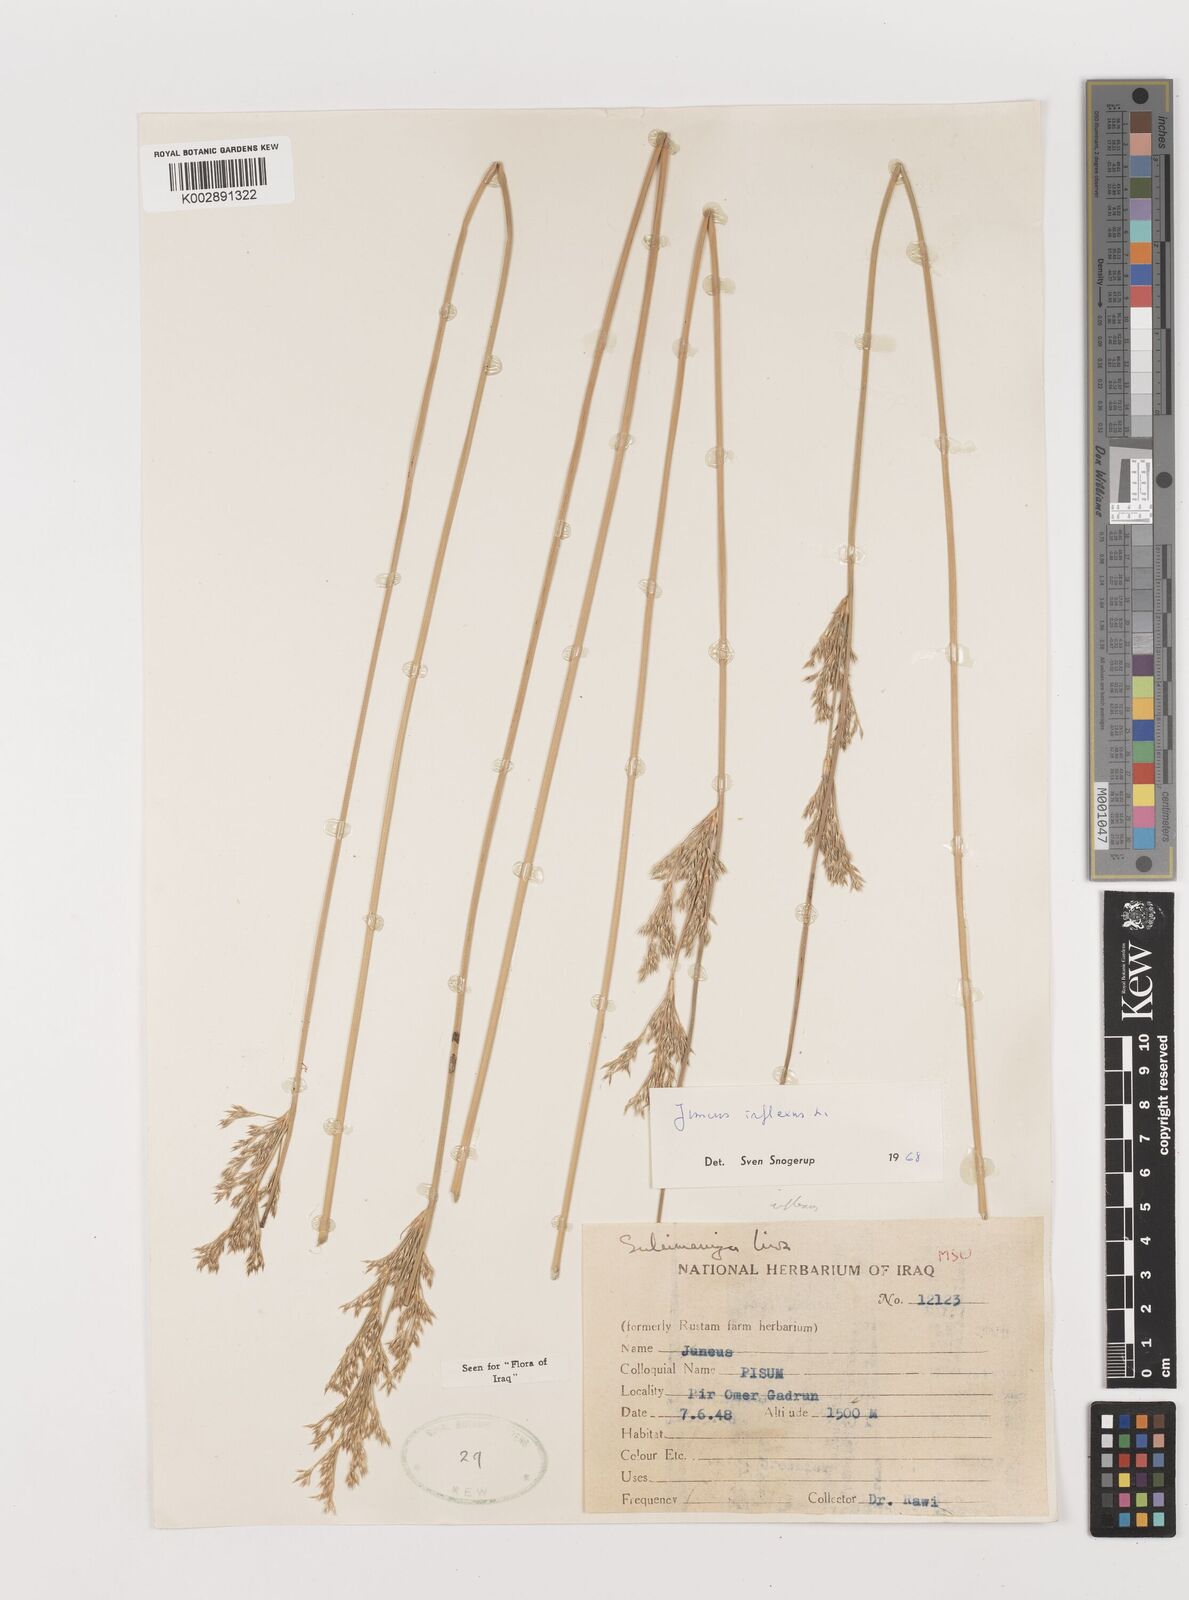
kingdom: Plantae
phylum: Tracheophyta
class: Liliopsida
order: Poales
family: Juncaceae
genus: Juncus
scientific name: Juncus inflexus
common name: Hard rush
